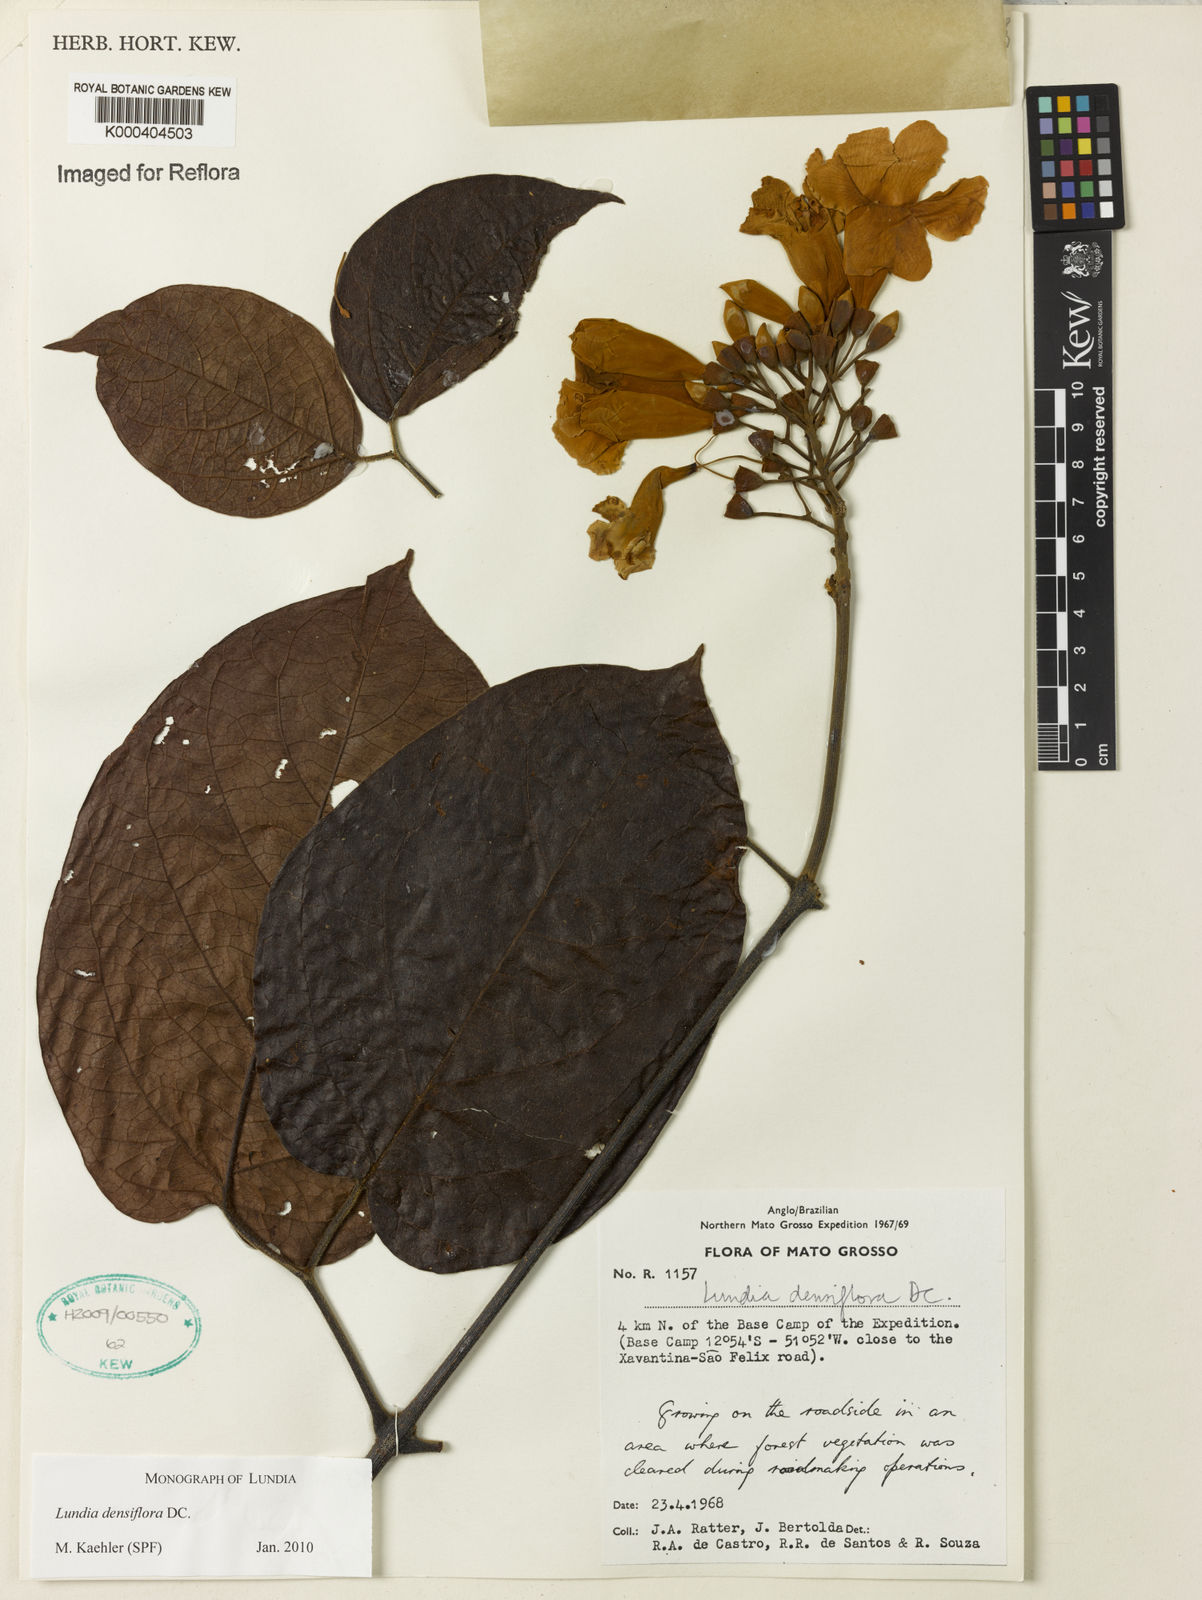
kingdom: Plantae
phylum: Tracheophyta
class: Magnoliopsida
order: Lamiales
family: Bignoniaceae
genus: Lundia
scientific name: Lundia densiflora
